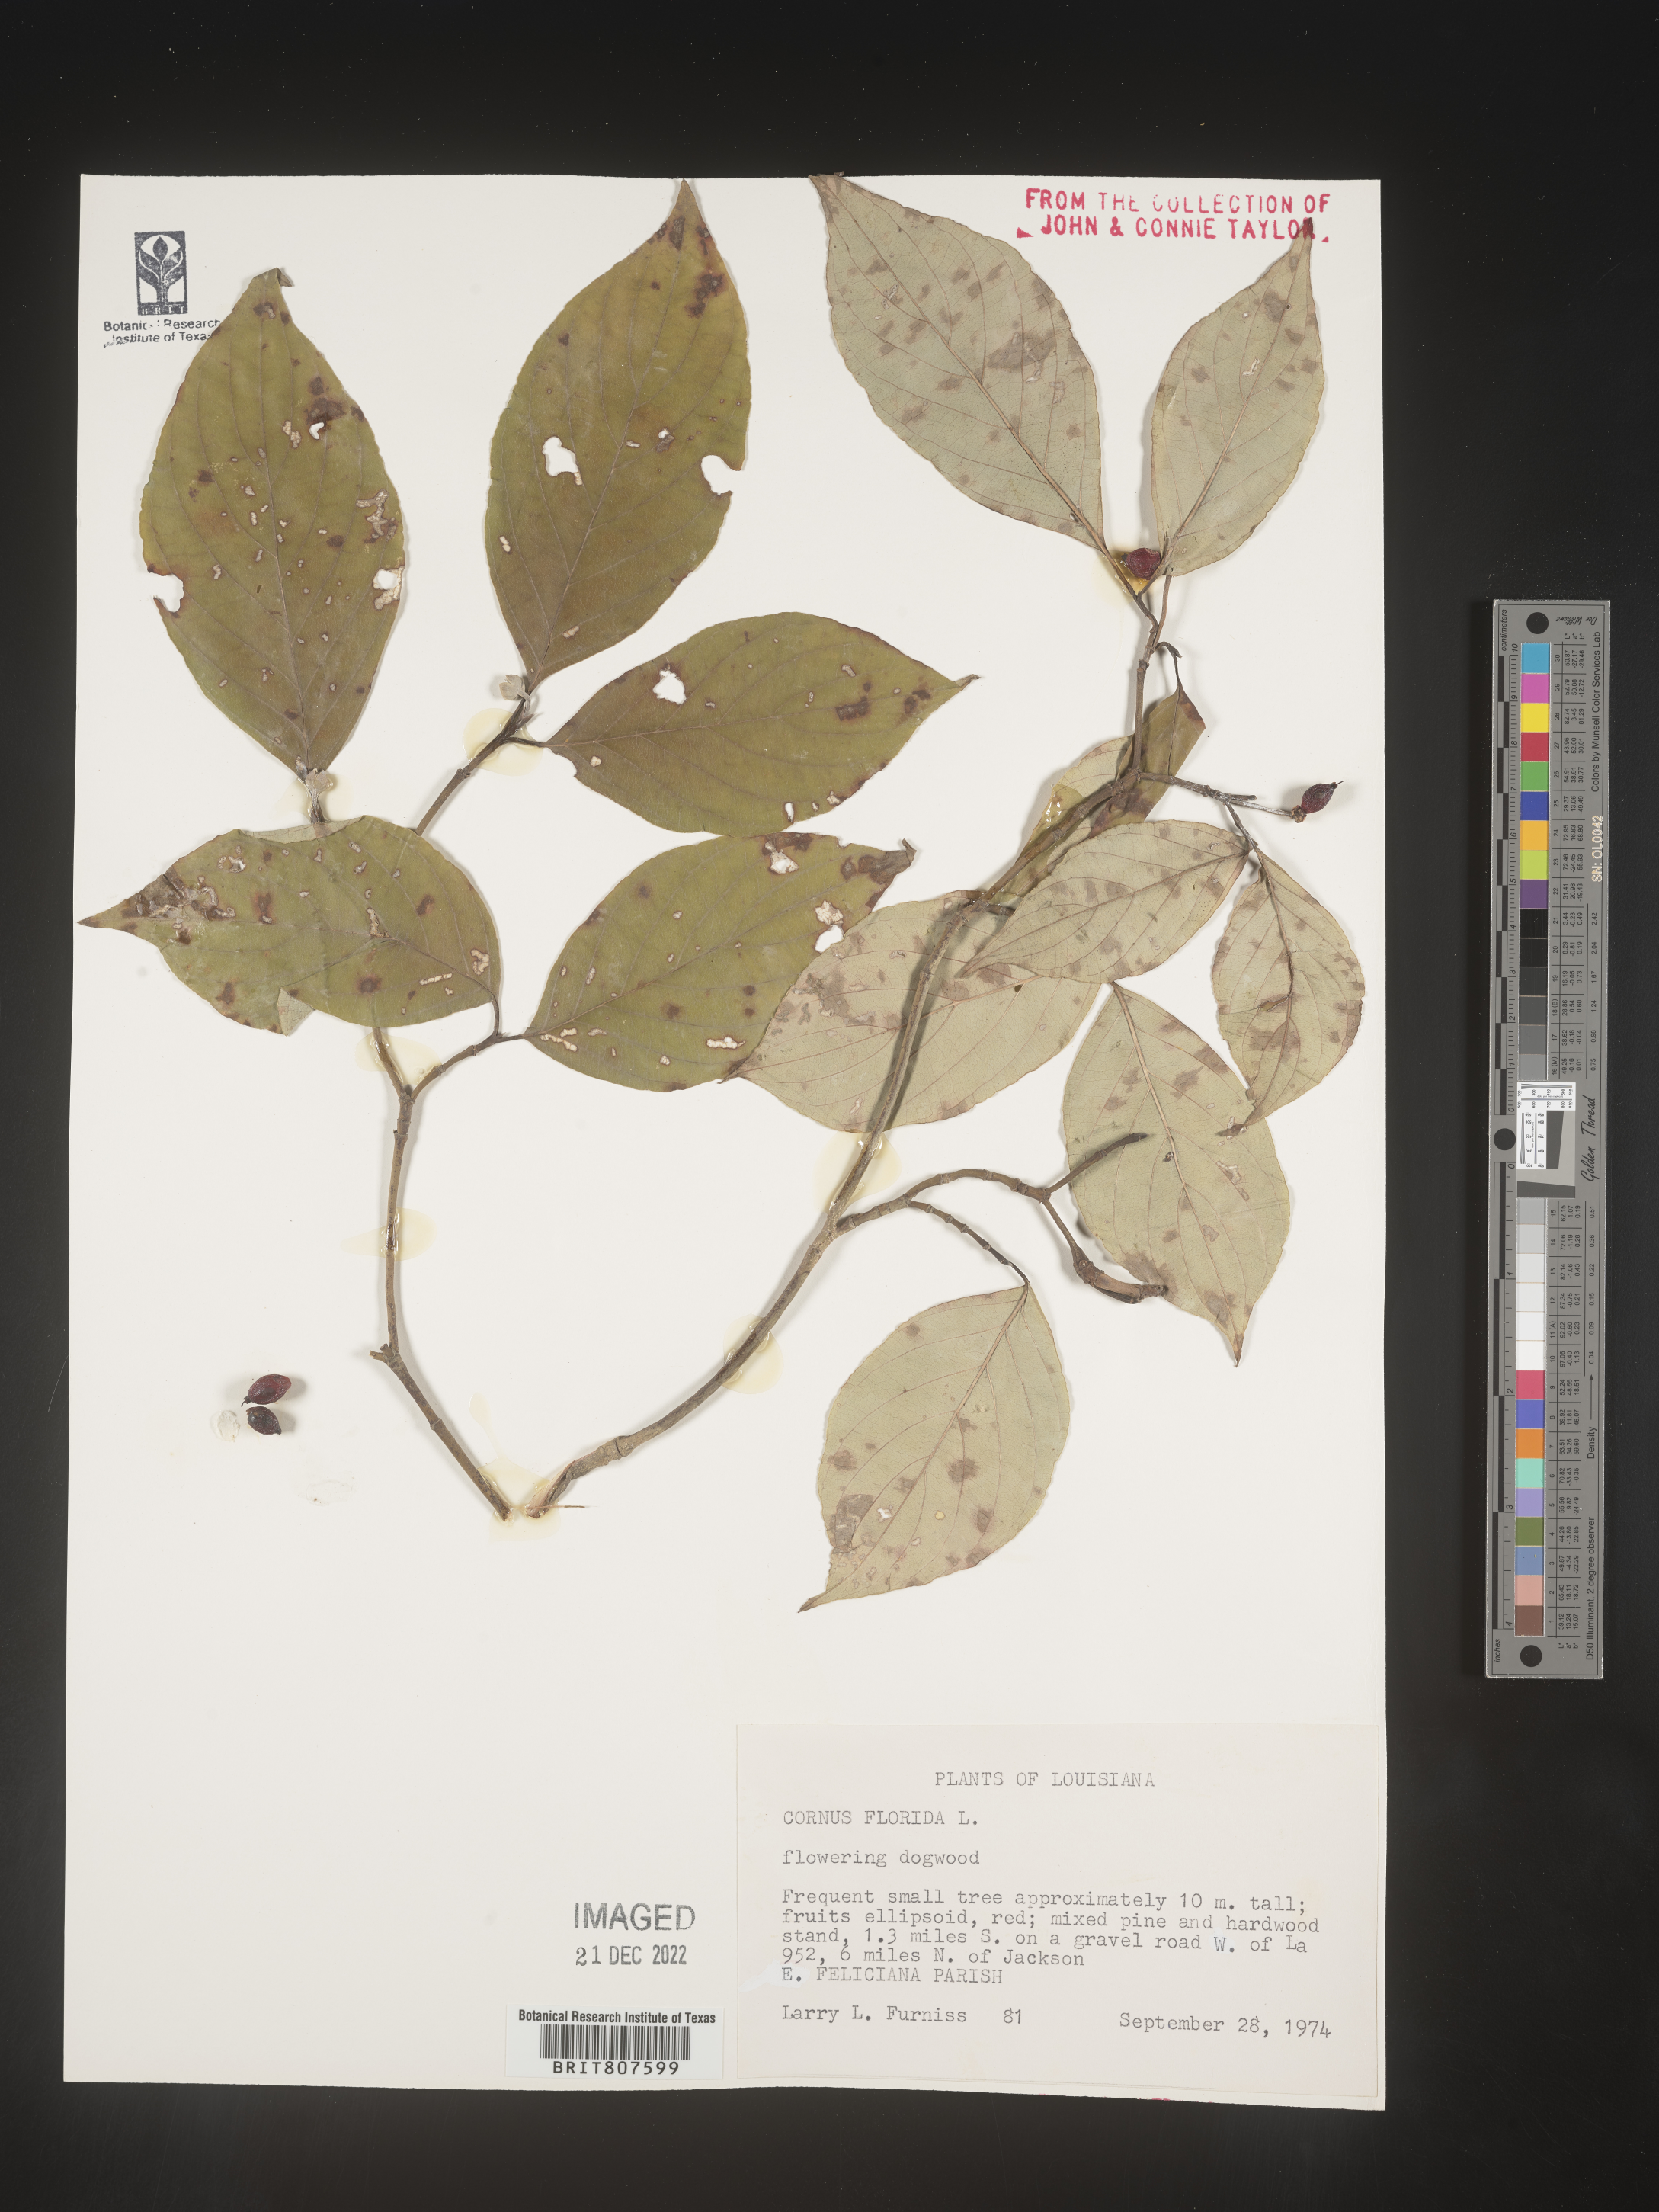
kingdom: Plantae
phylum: Tracheophyta
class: Magnoliopsida
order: Cornales
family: Cornaceae
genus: Cornus
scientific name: Cornus florida
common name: Flowering dogwood
